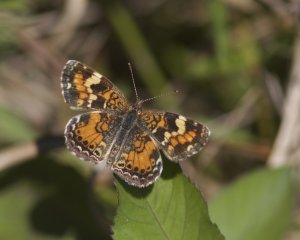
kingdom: Animalia
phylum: Arthropoda
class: Insecta
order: Lepidoptera
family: Nymphalidae
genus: Phyciodes
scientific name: Phyciodes phaon
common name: Phaon Crescent
